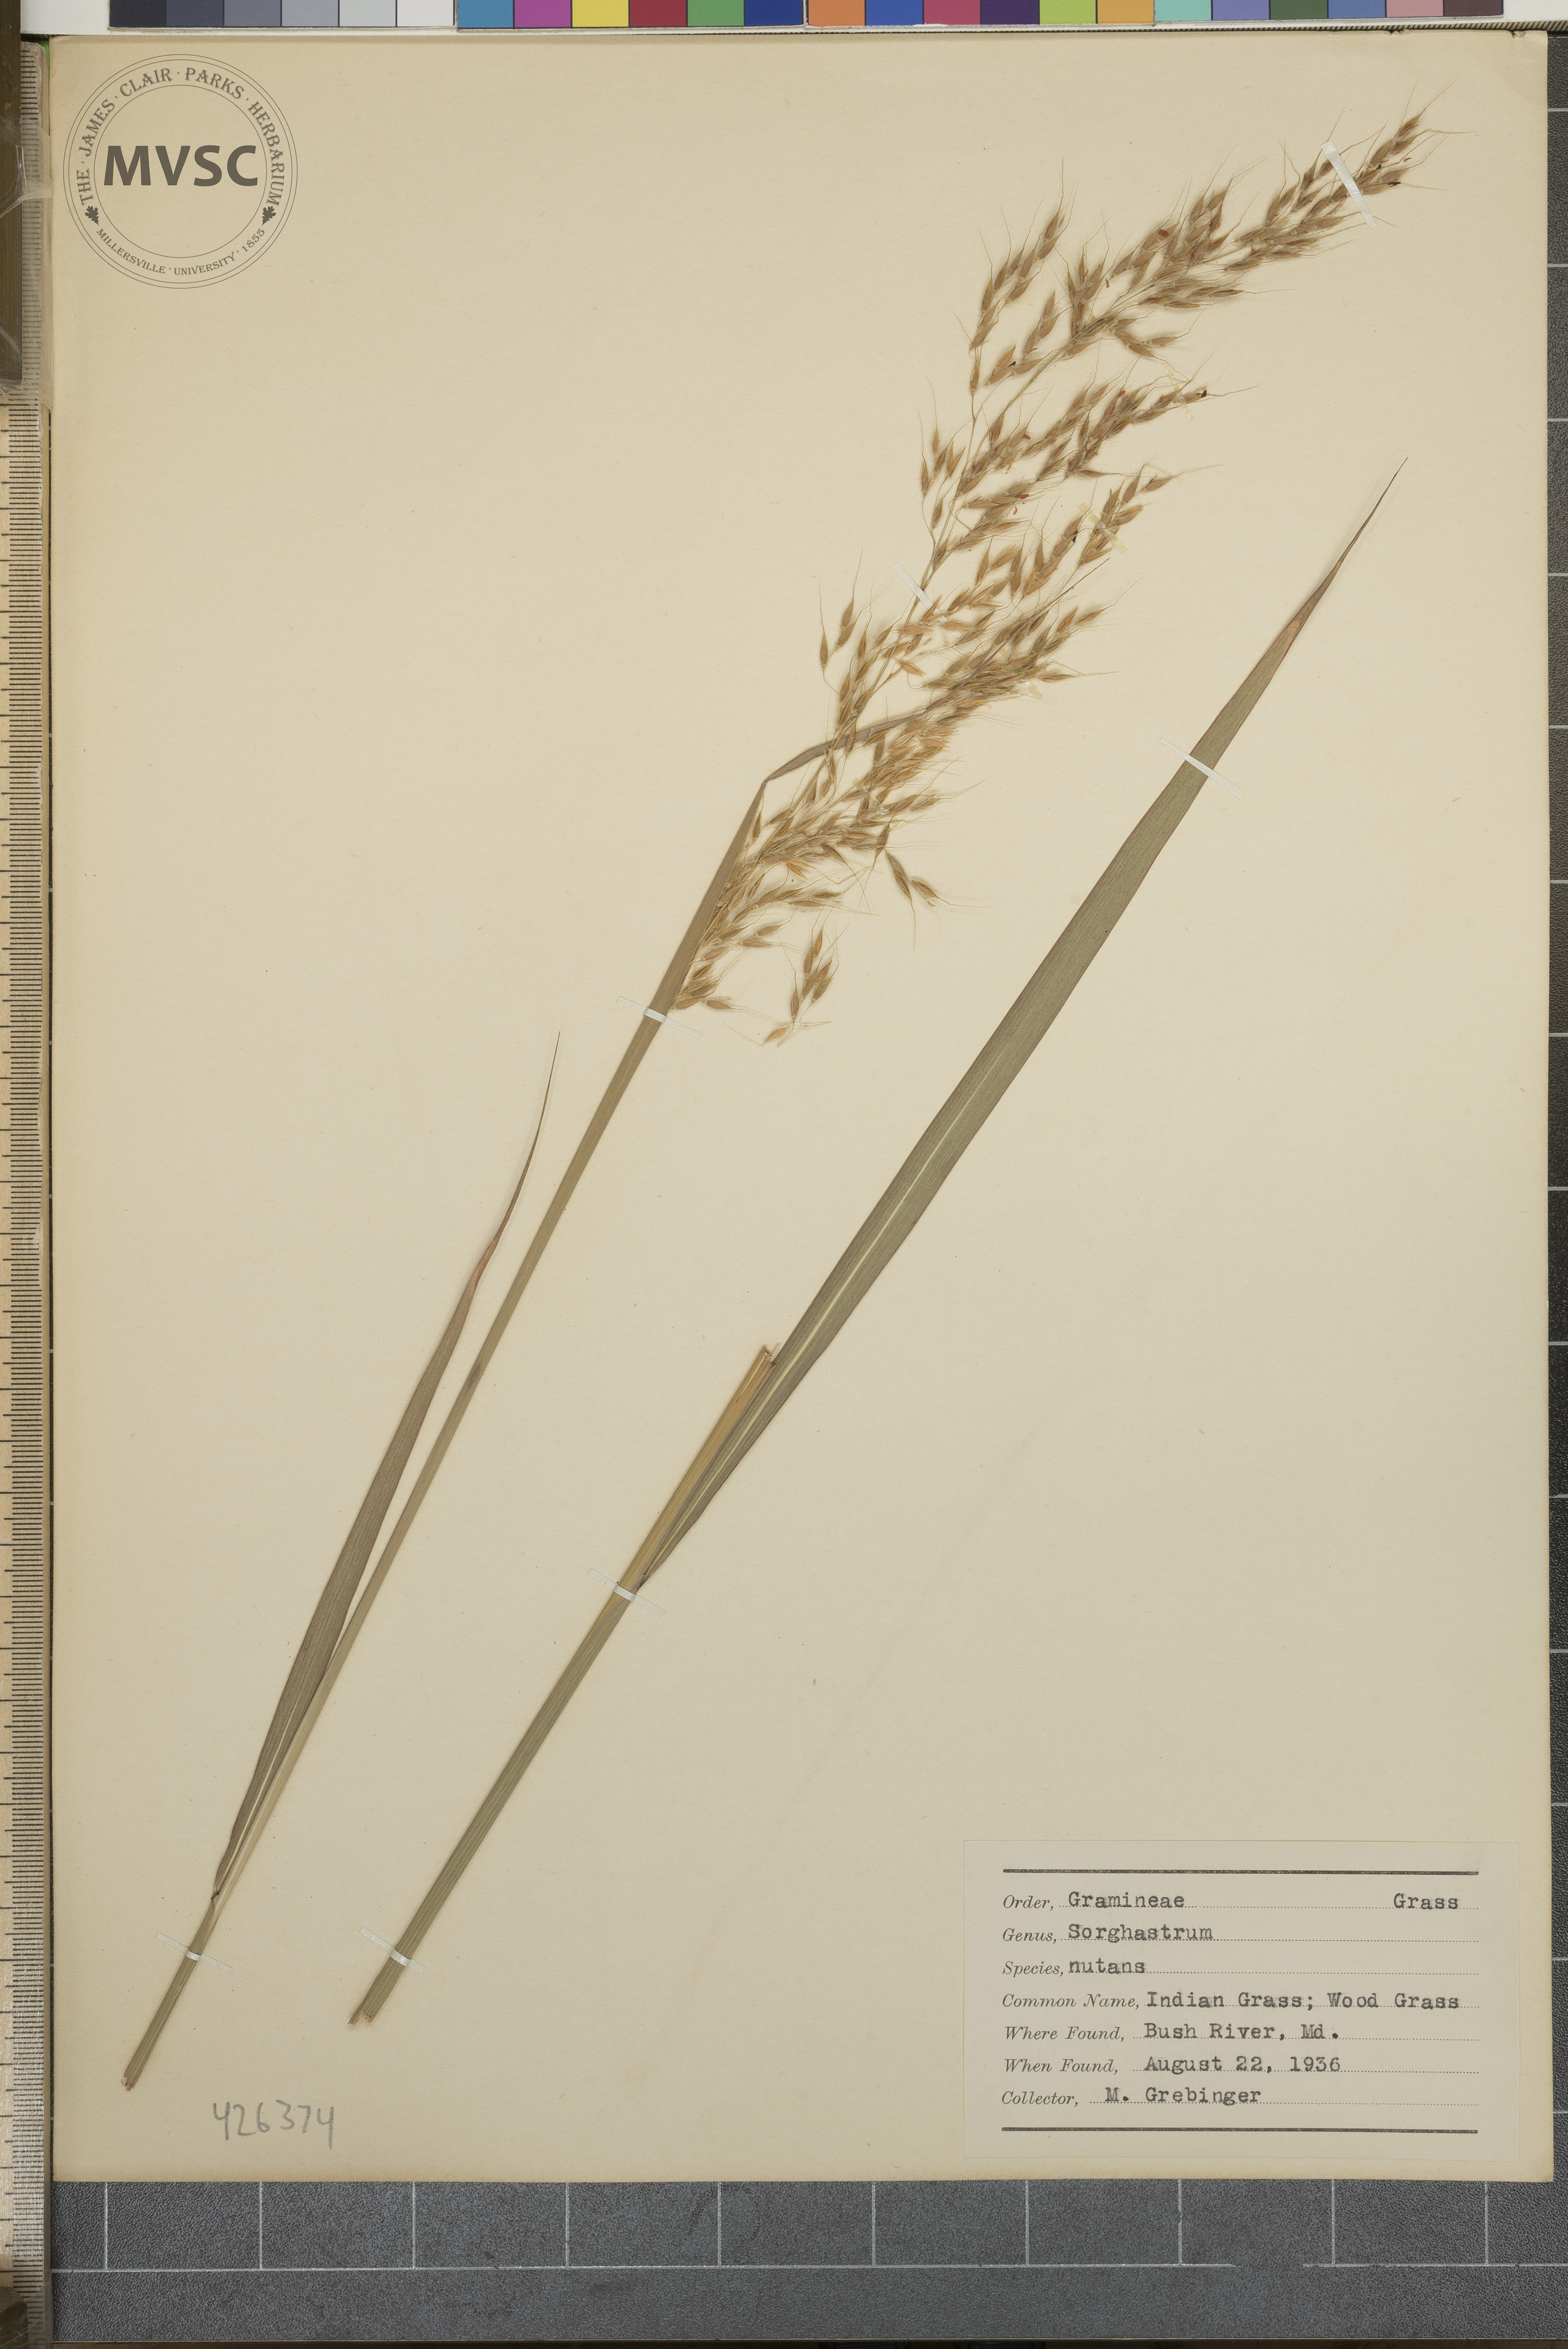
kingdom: Plantae
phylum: Tracheophyta
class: Liliopsida
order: Poales
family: Poaceae
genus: Sorghastrum
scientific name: Sorghastrum nutans
